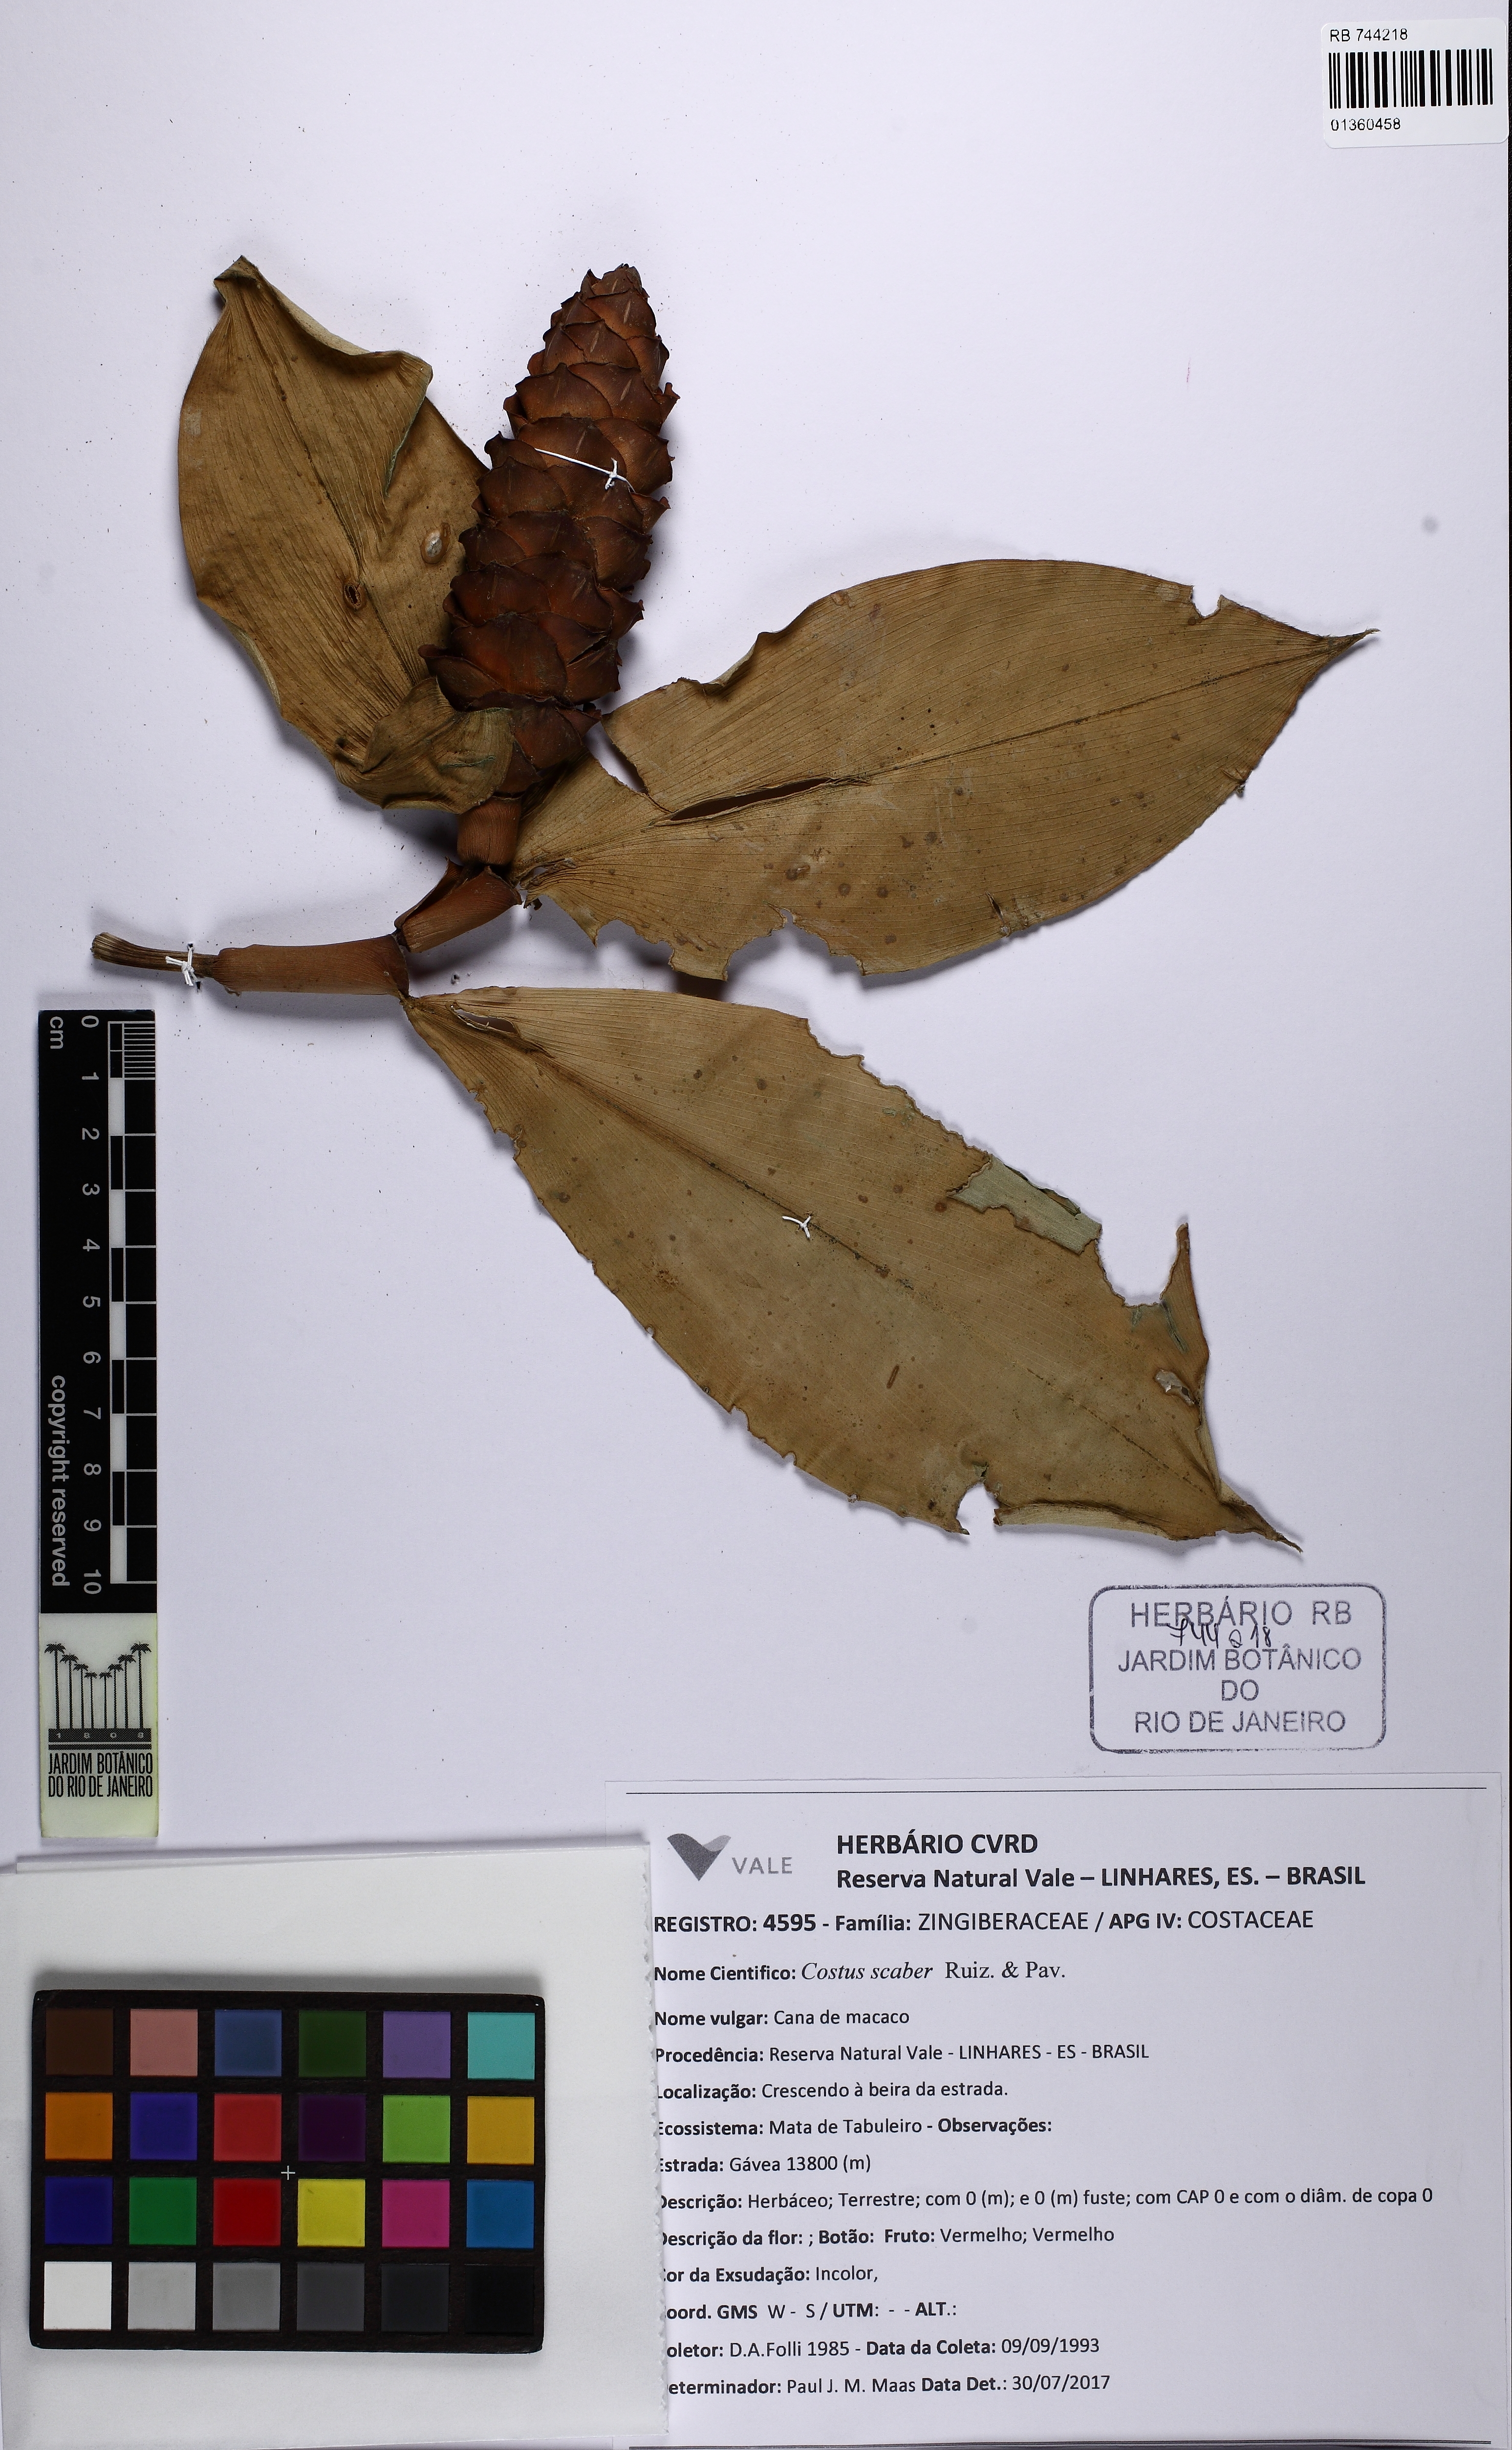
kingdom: Plantae
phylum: Tracheophyta
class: Liliopsida
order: Zingiberales
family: Costaceae
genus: Costus
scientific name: Costus scaber
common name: Spiral head ginger
